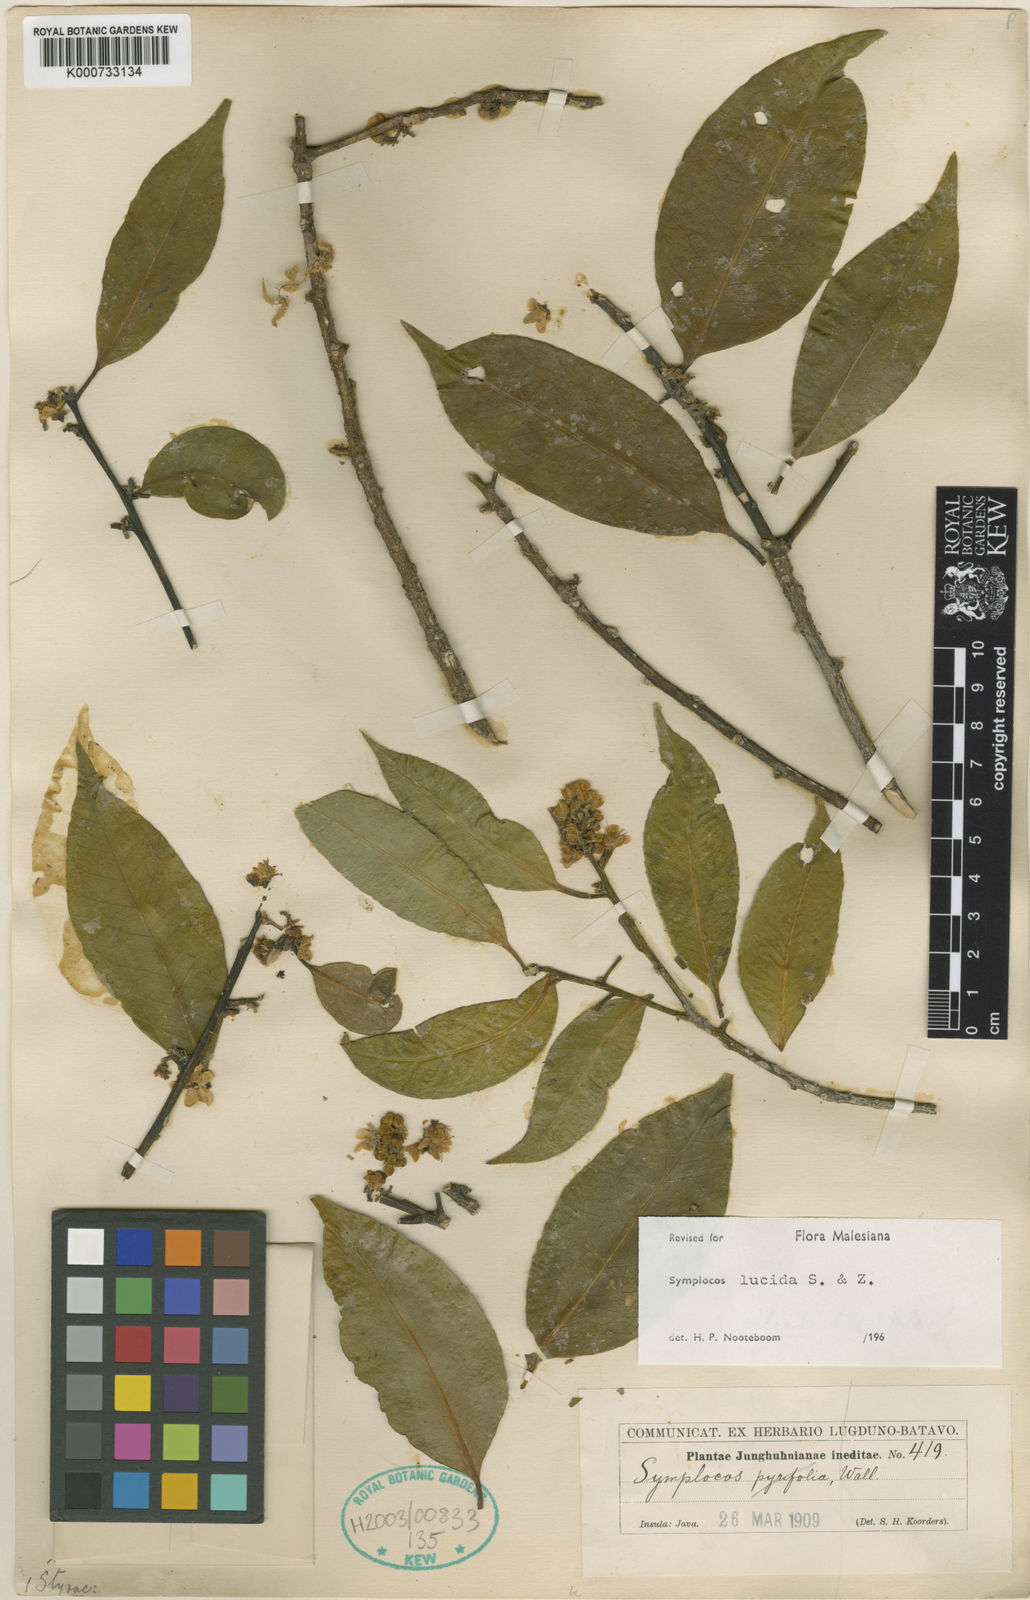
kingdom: Plantae
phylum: Tracheophyta
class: Magnoliopsida
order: Ericales
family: Symplocaceae
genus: Symplocos
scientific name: Symplocos
